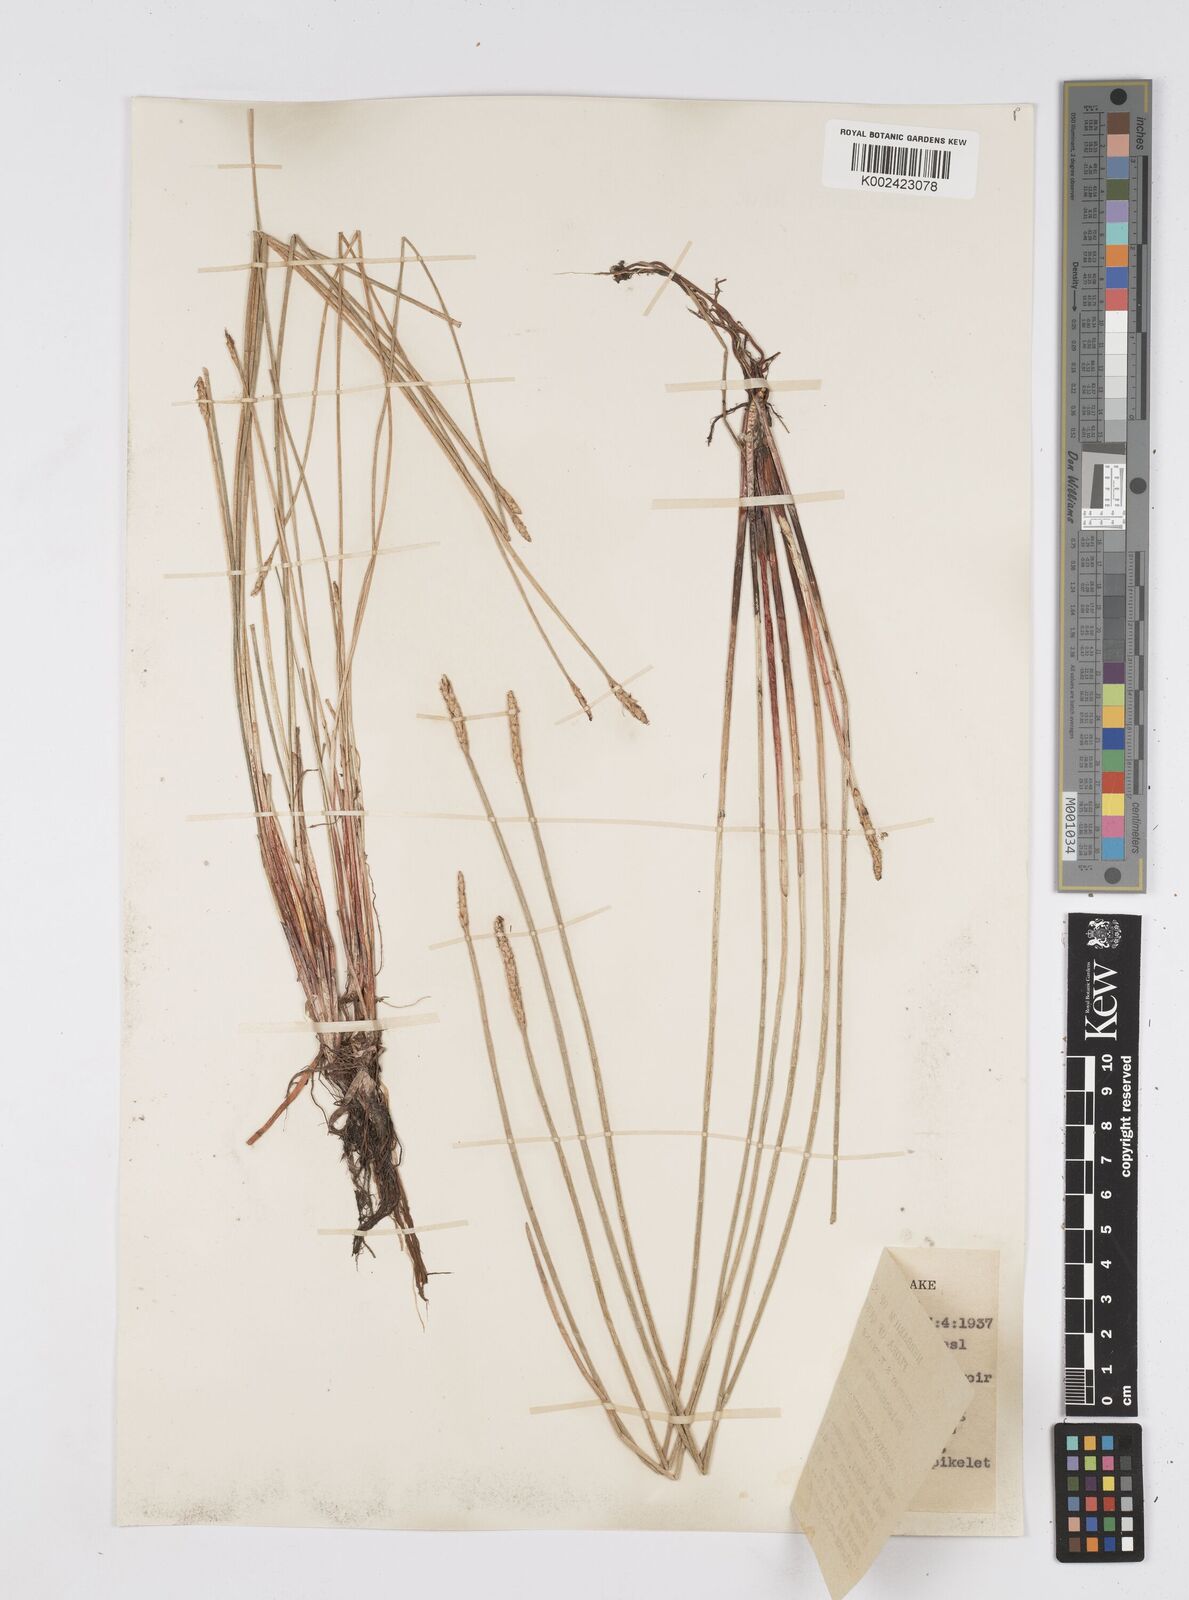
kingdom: Plantae
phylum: Tracheophyta
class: Liliopsida
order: Poales
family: Cyperaceae
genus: Eleocharis
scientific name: Eleocharis dulcis
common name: Chinese water chestnut
